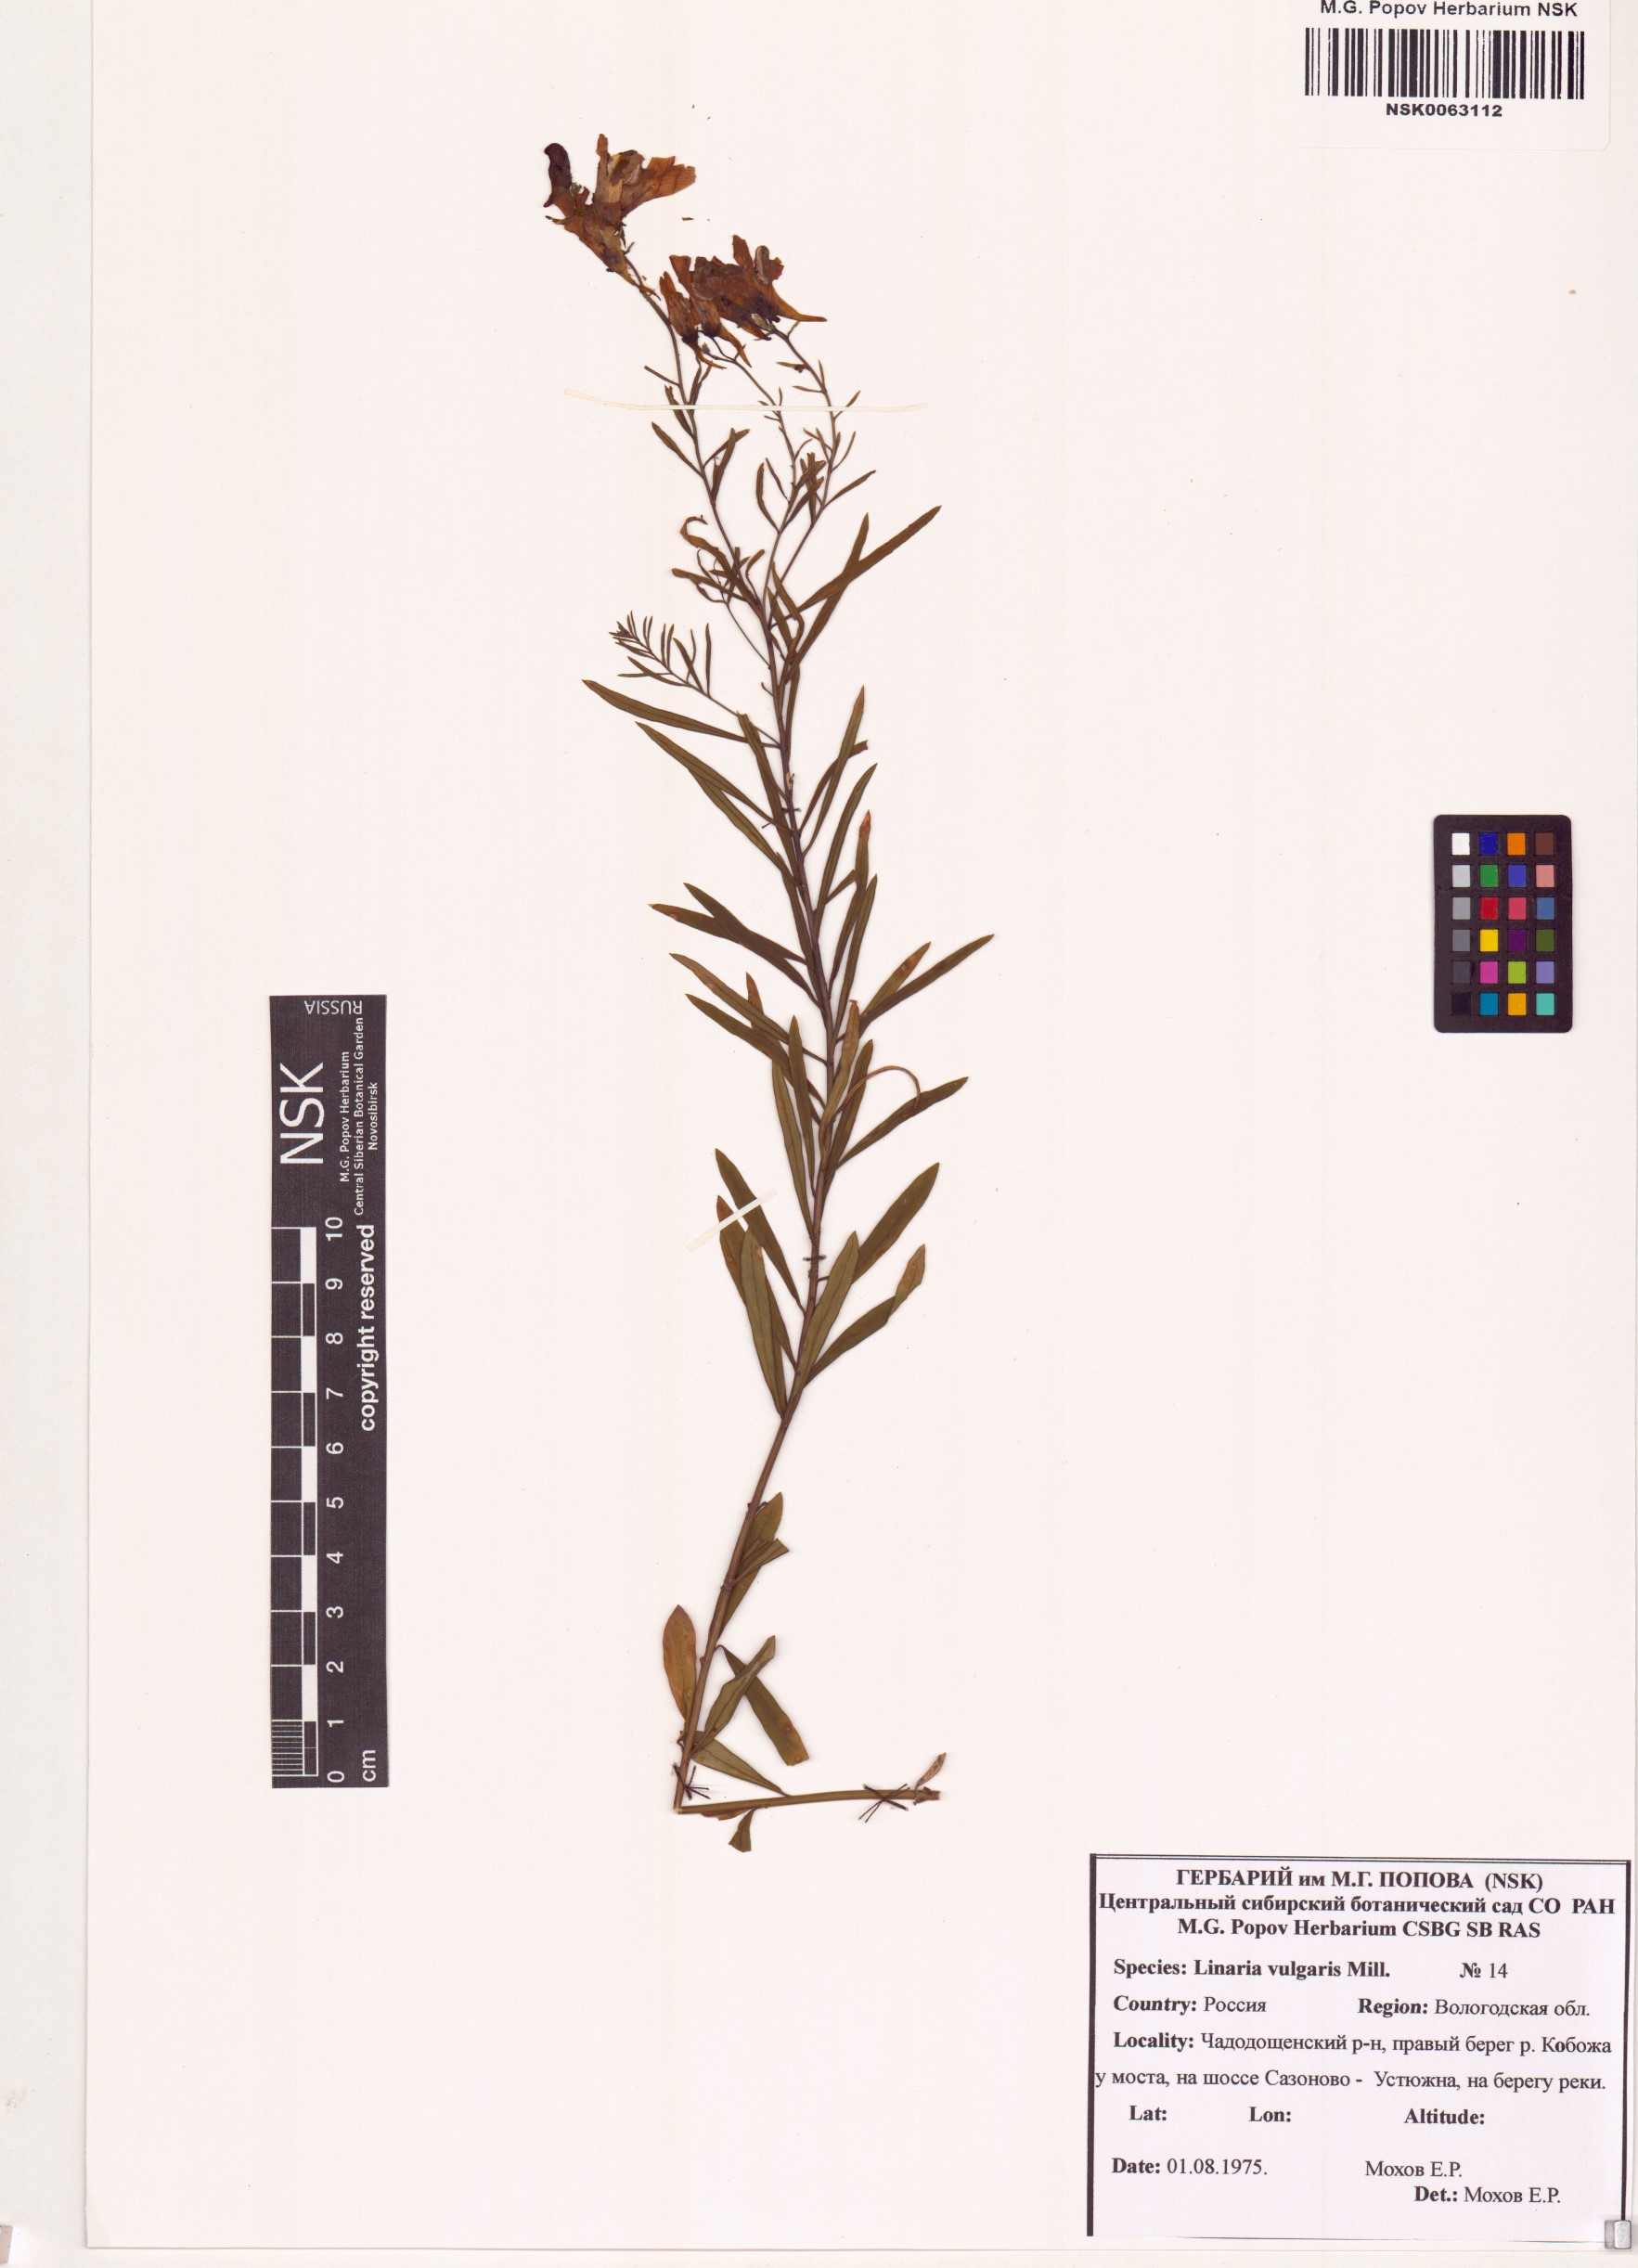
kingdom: Plantae
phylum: Tracheophyta
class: Magnoliopsida
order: Lamiales
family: Plantaginaceae
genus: Linaria
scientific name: Linaria vulgaris
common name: Butter and eggs
